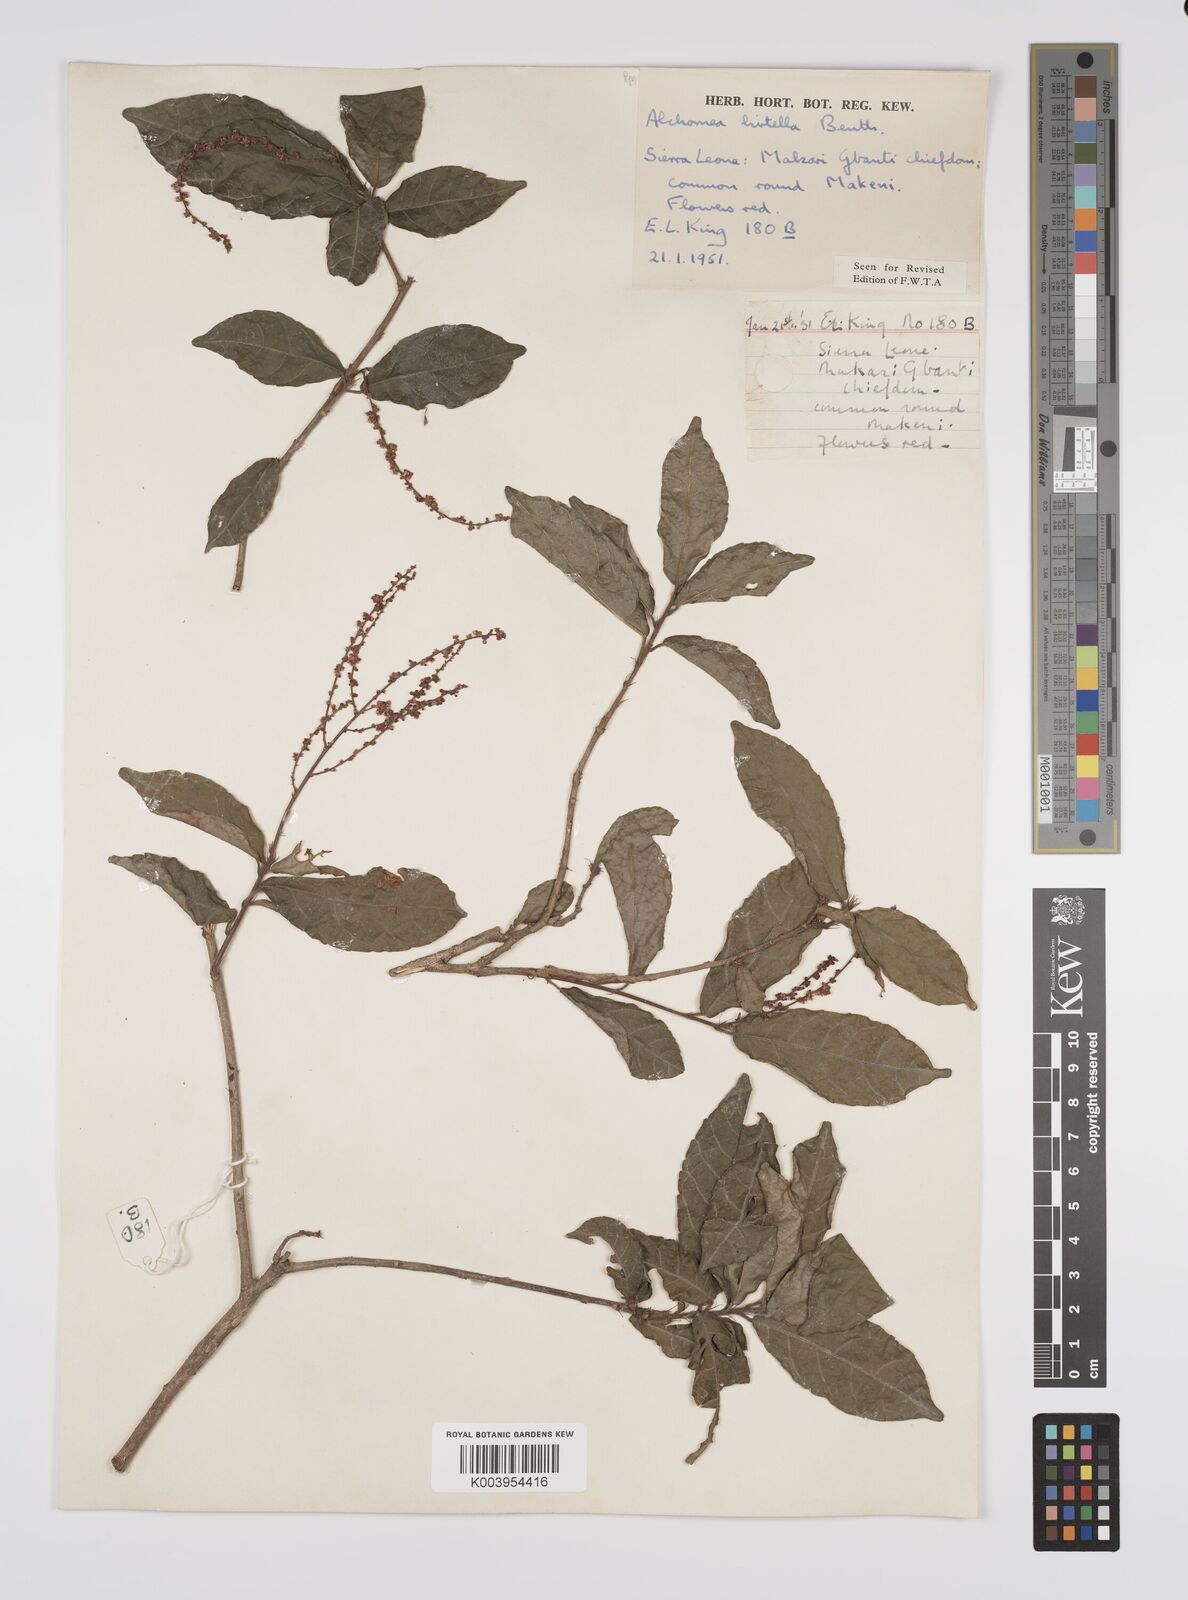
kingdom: Plantae
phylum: Tracheophyta
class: Magnoliopsida
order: Malpighiales
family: Euphorbiaceae
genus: Alchornea
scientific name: Alchornea hirtella
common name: Forest bead-string
